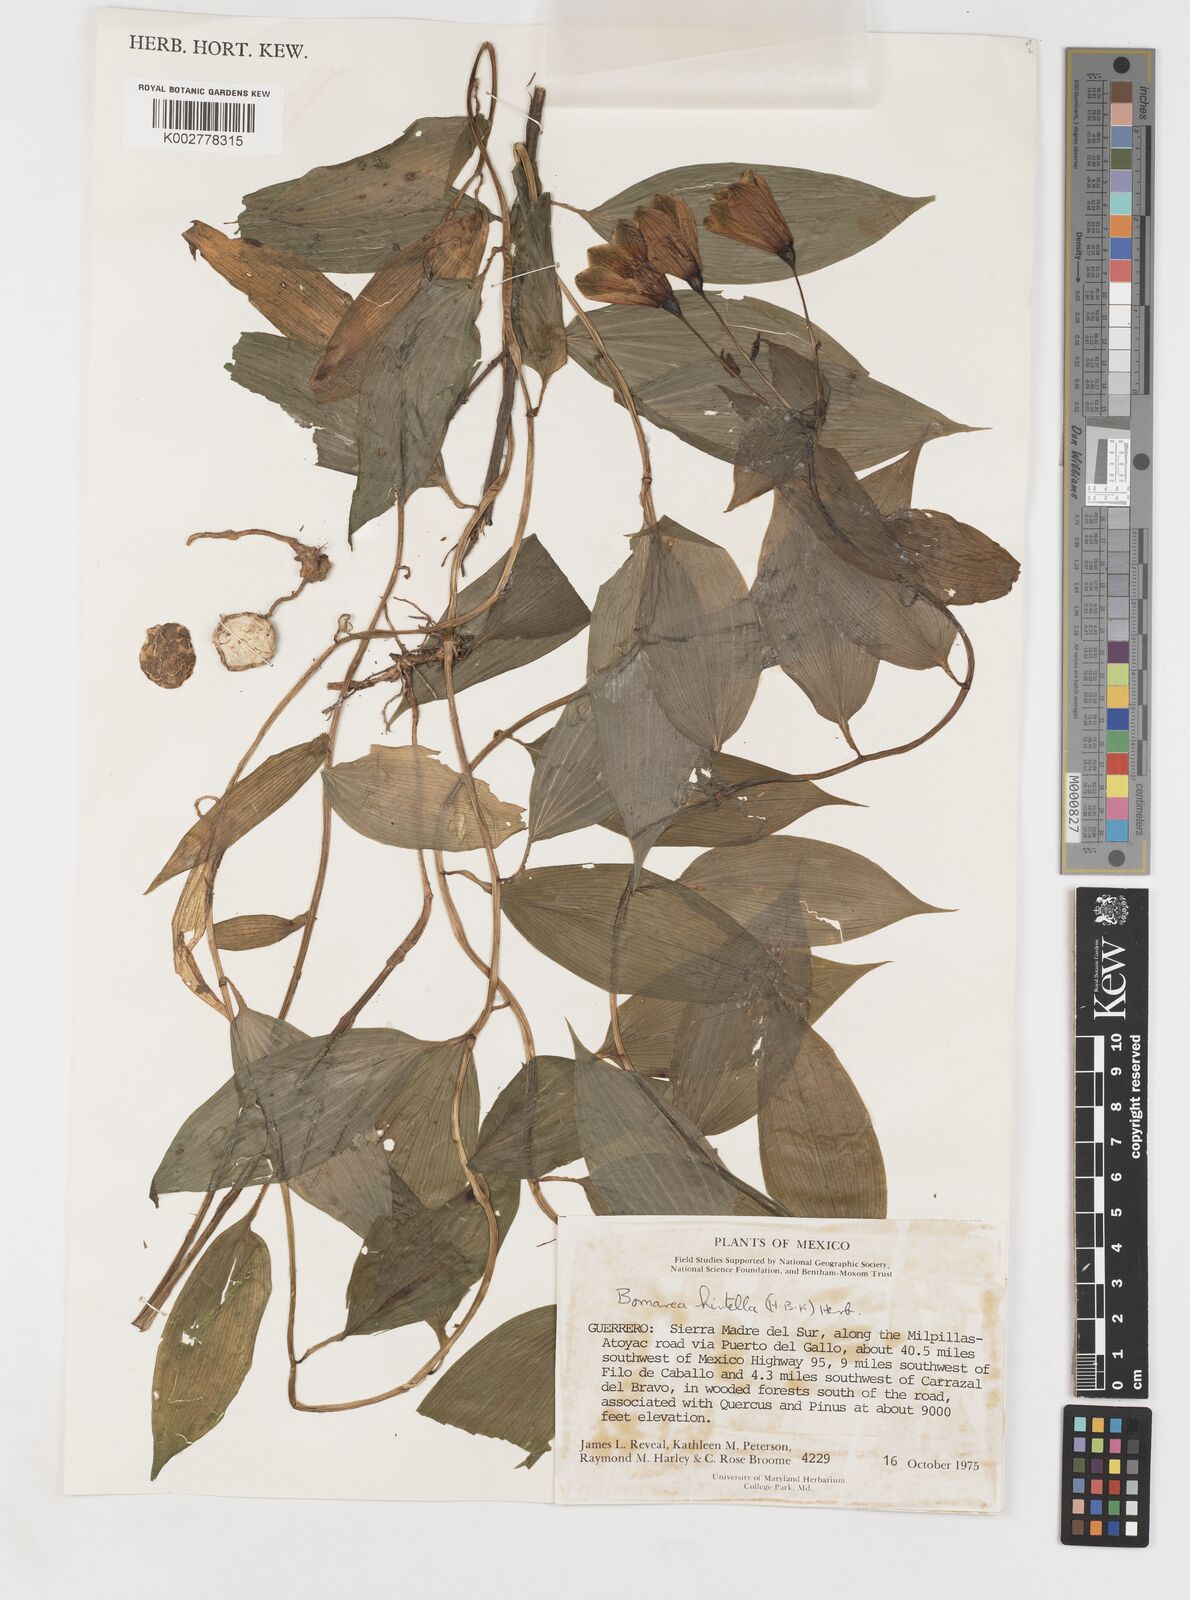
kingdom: Plantae
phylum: Tracheophyta
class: Liliopsida
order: Liliales
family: Alstroemeriaceae
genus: Bomarea
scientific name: Bomarea edulis
